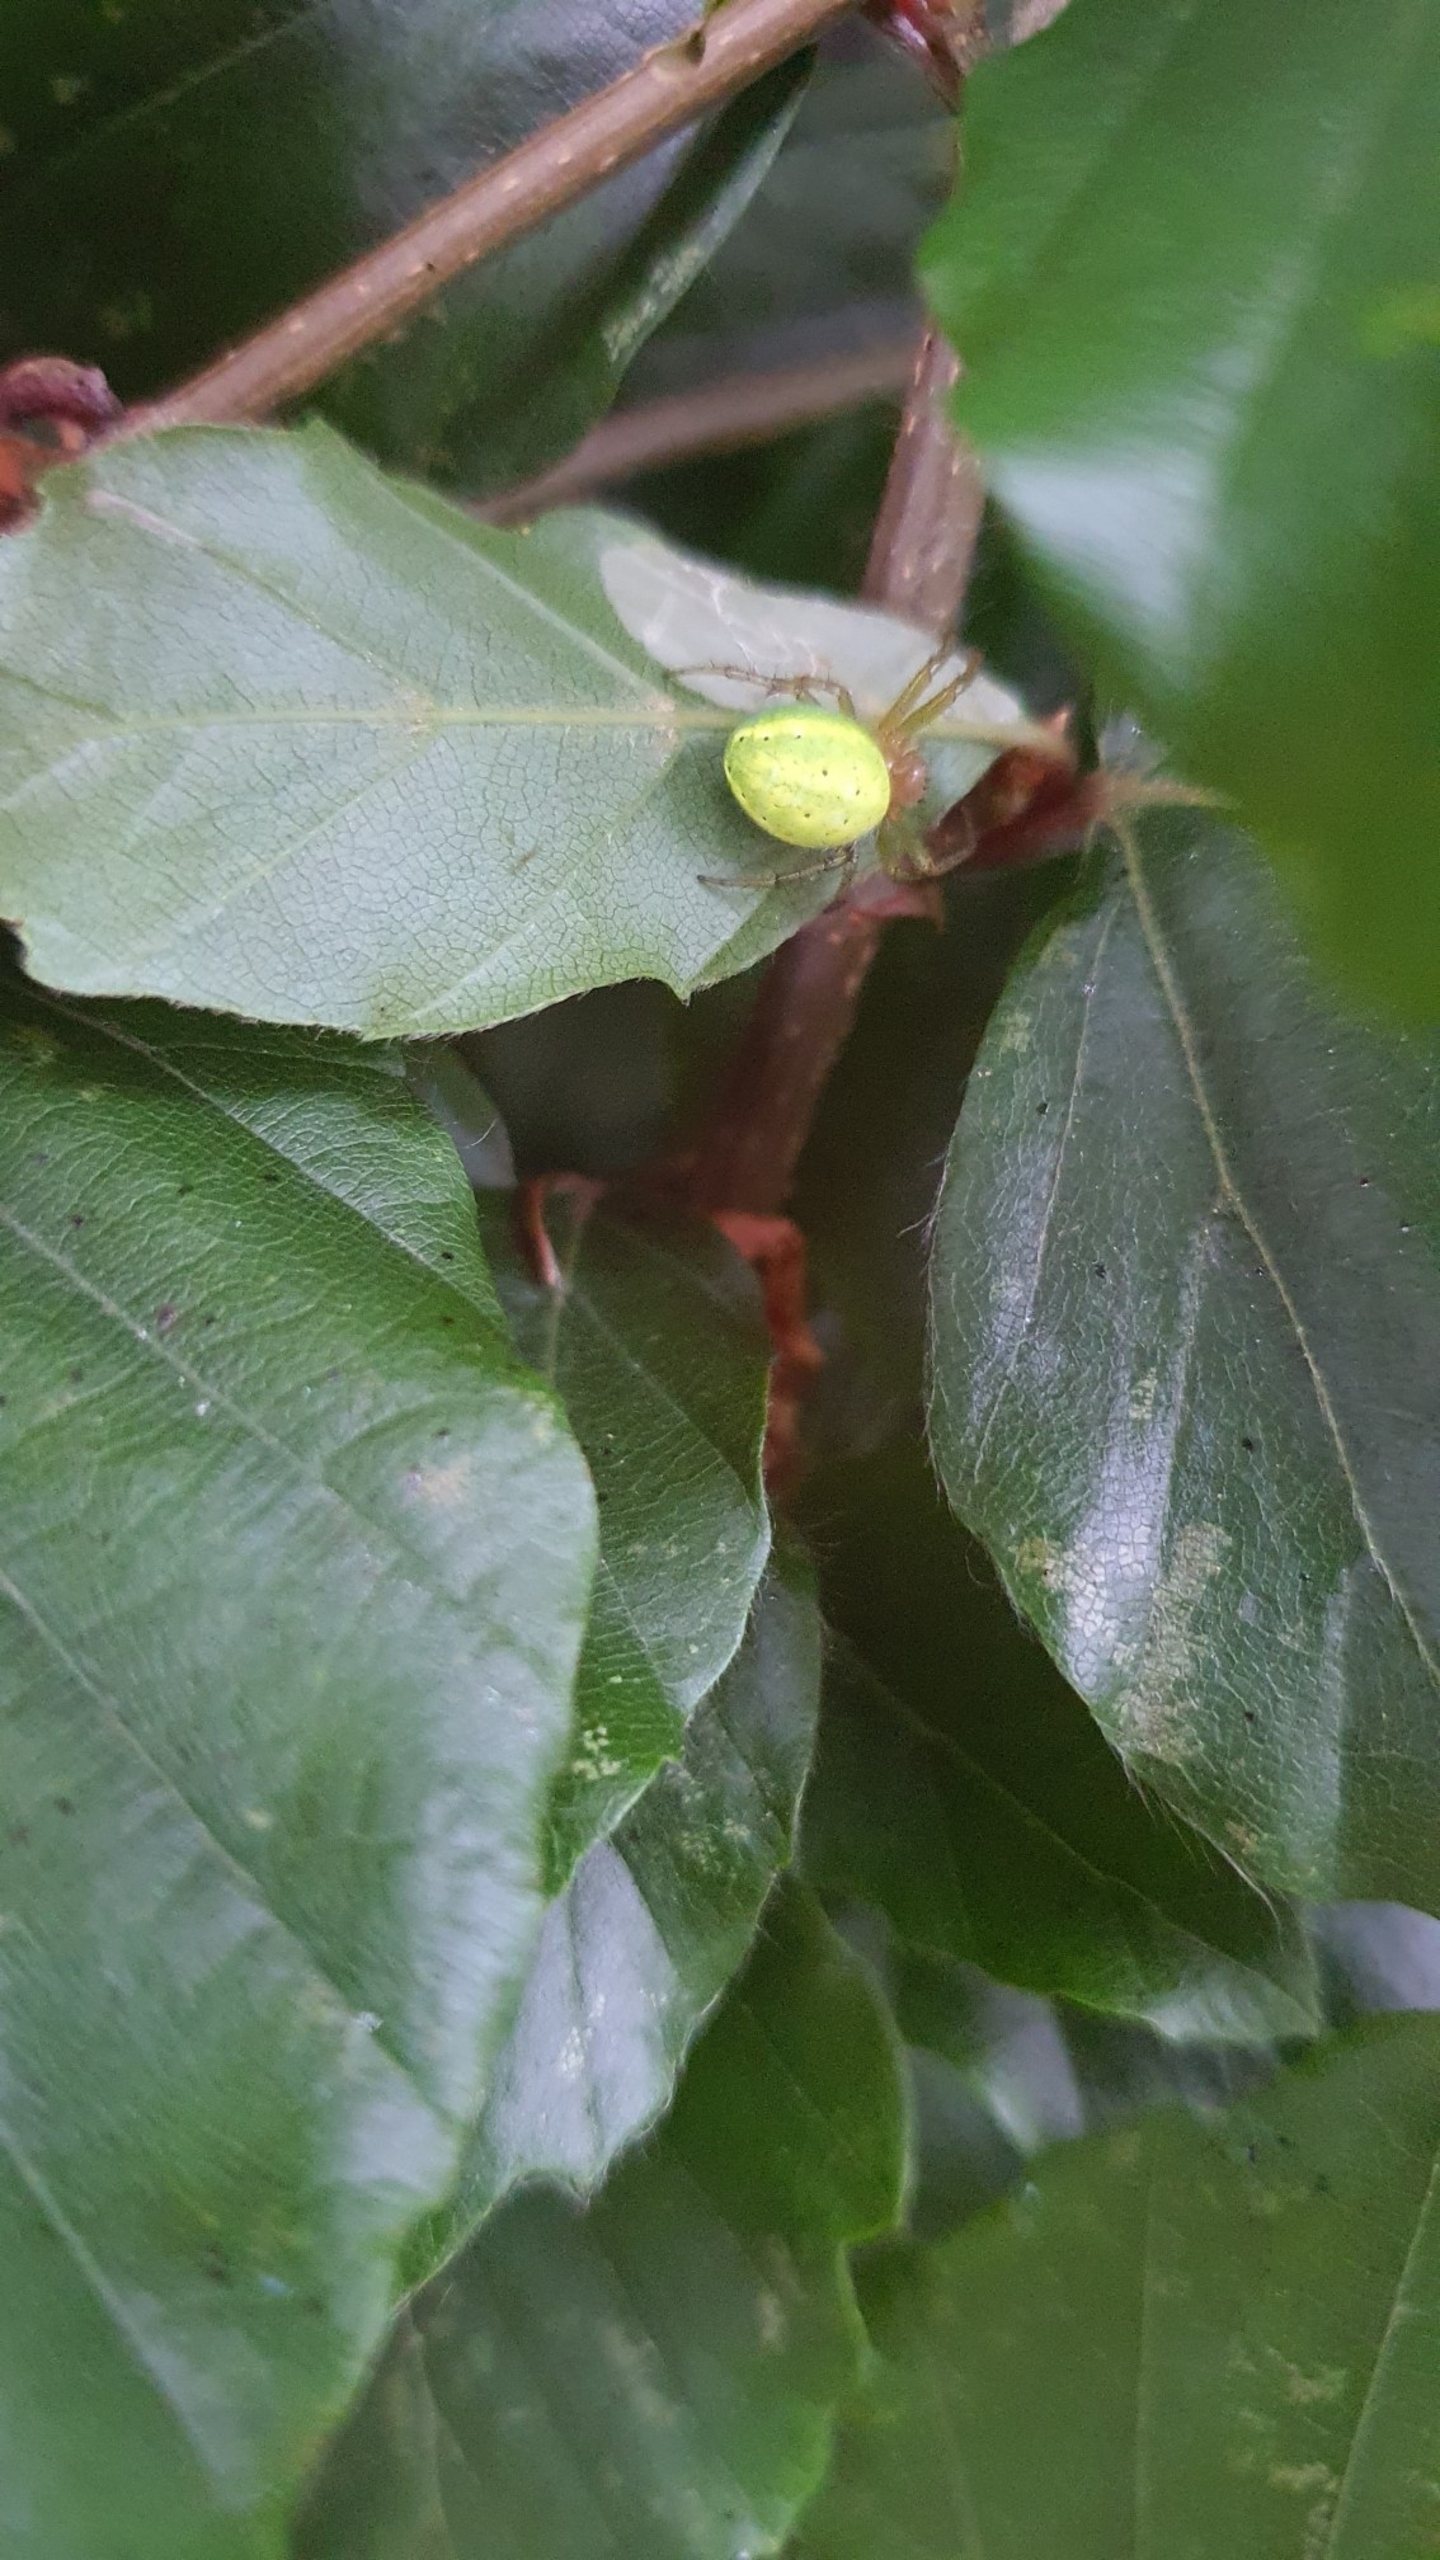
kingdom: Animalia
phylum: Arthropoda
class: Arachnida
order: Araneae
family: Araneidae
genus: Araniella
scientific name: Araniella
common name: Agurkeedderkopslægten
